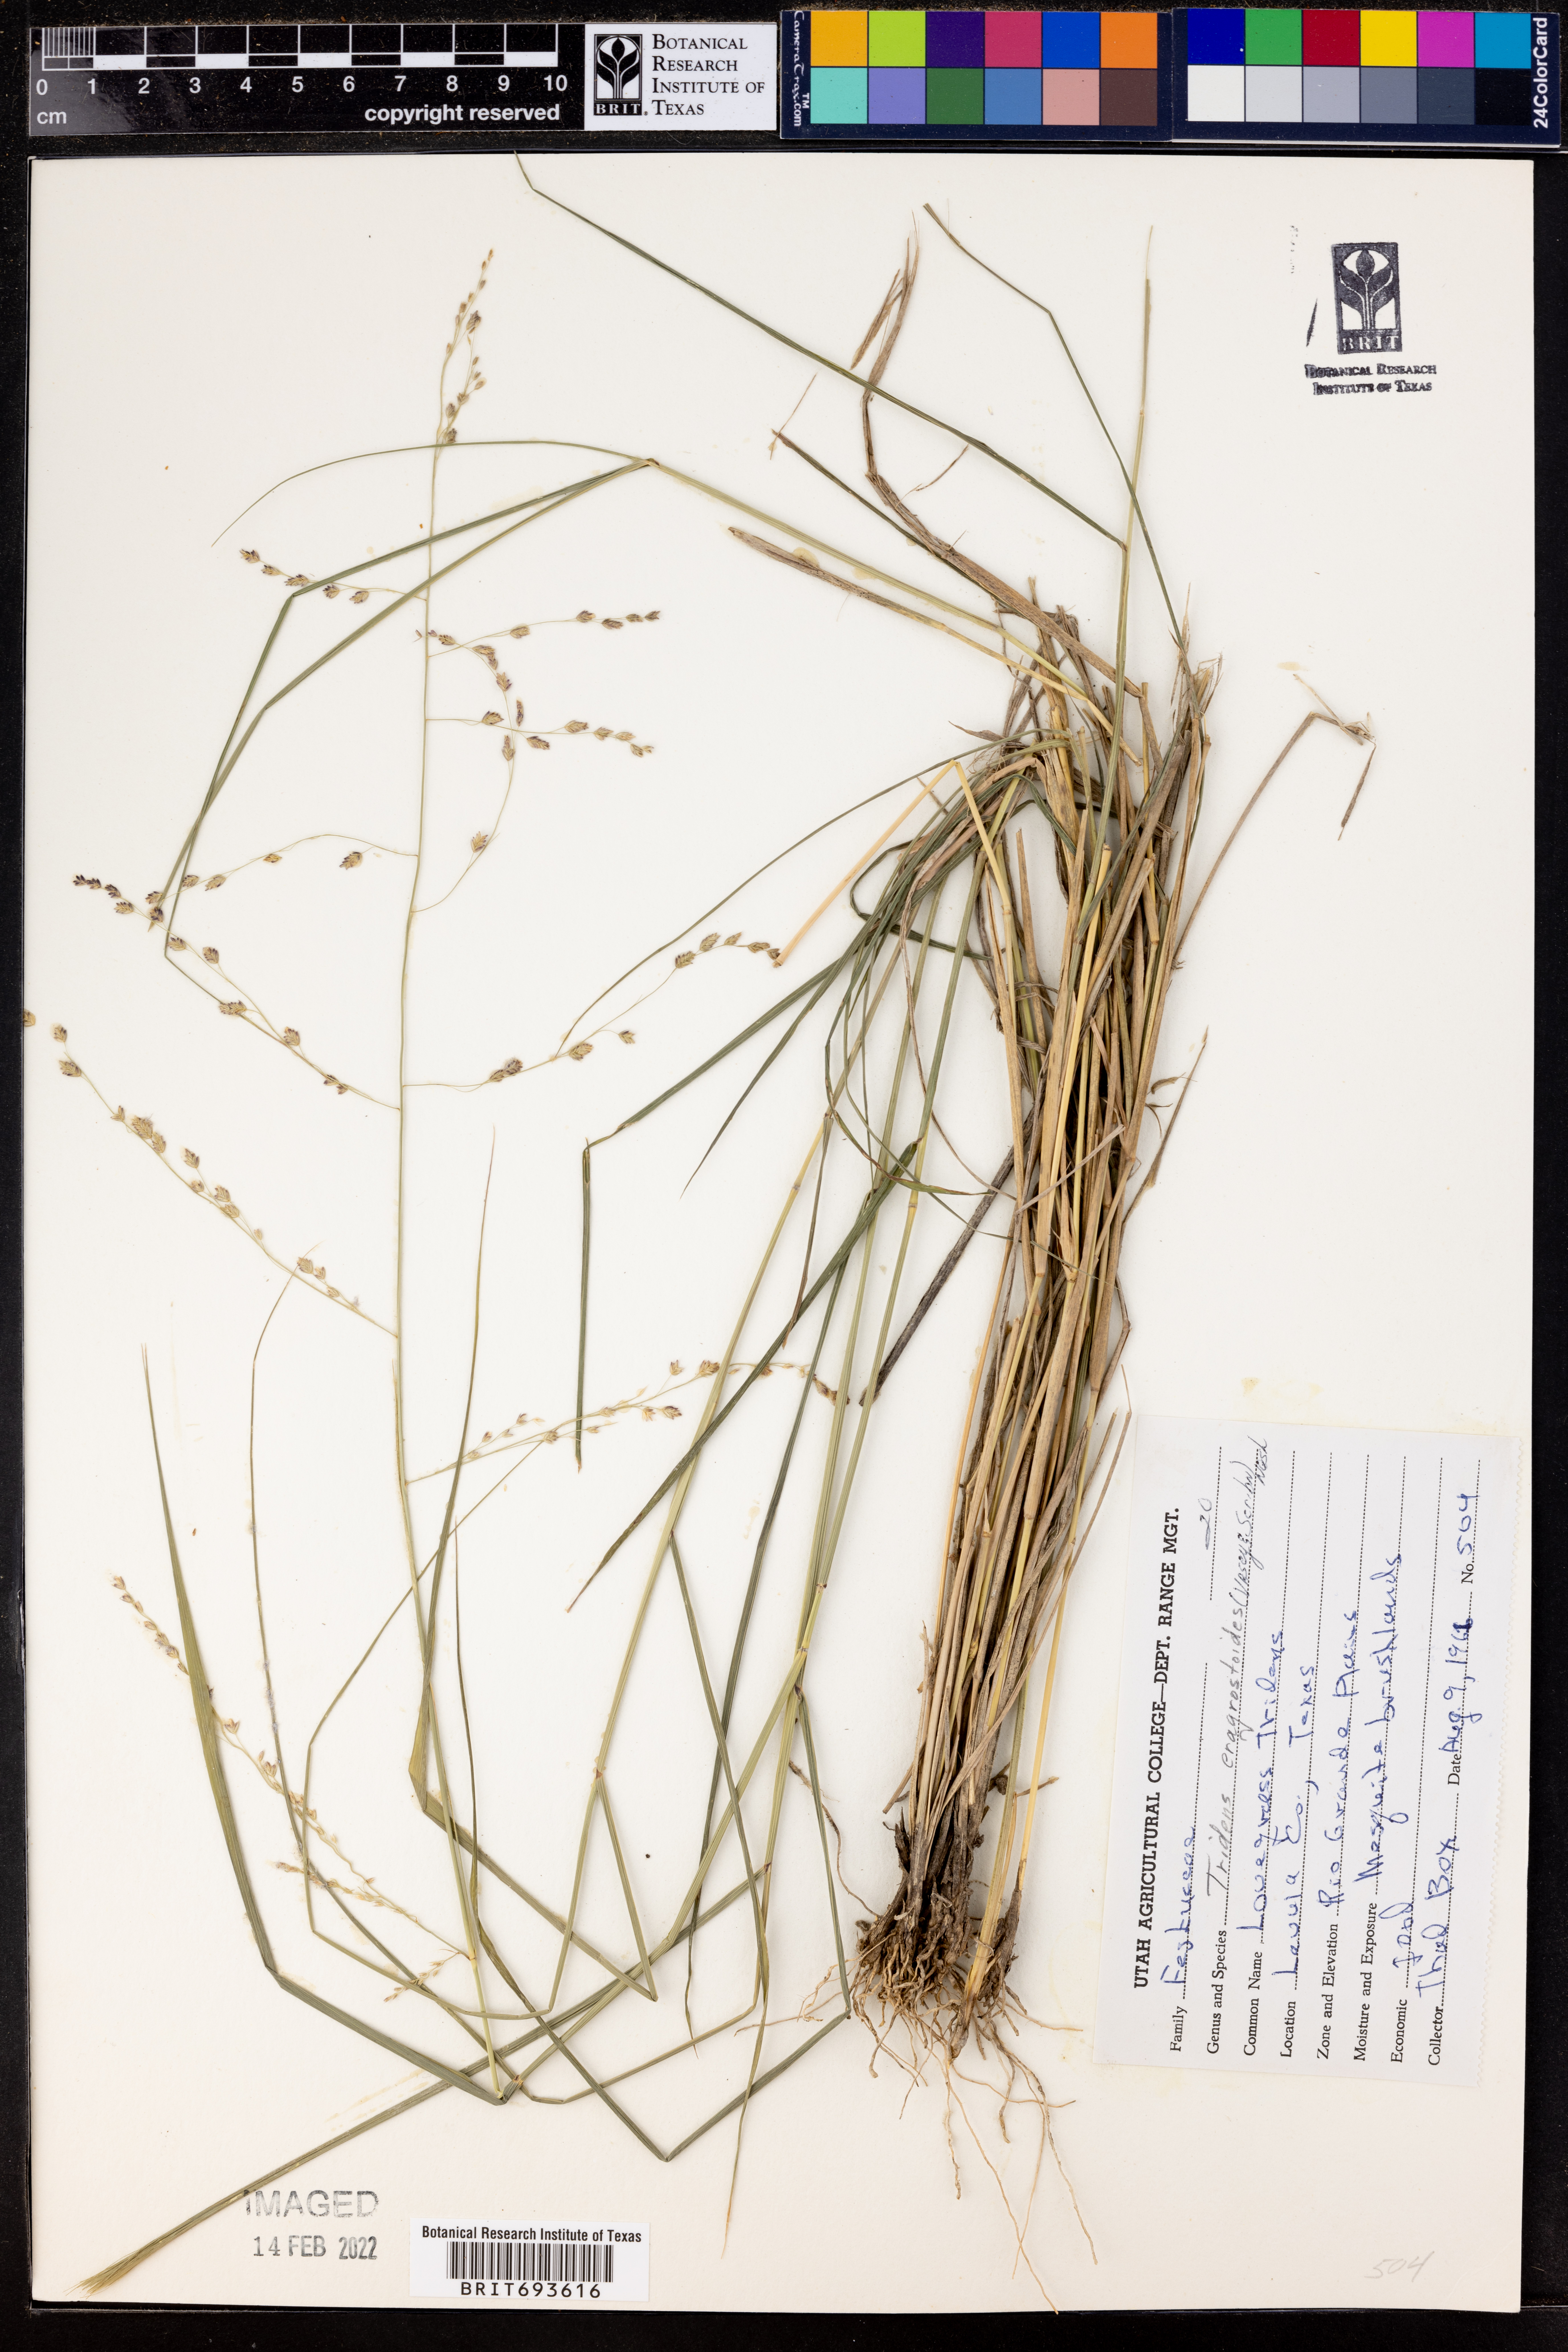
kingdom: Plantae
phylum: Tracheophyta
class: Liliopsida
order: Poales
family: Poaceae
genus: Triplasiella
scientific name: Triplasiella eragrostoides
